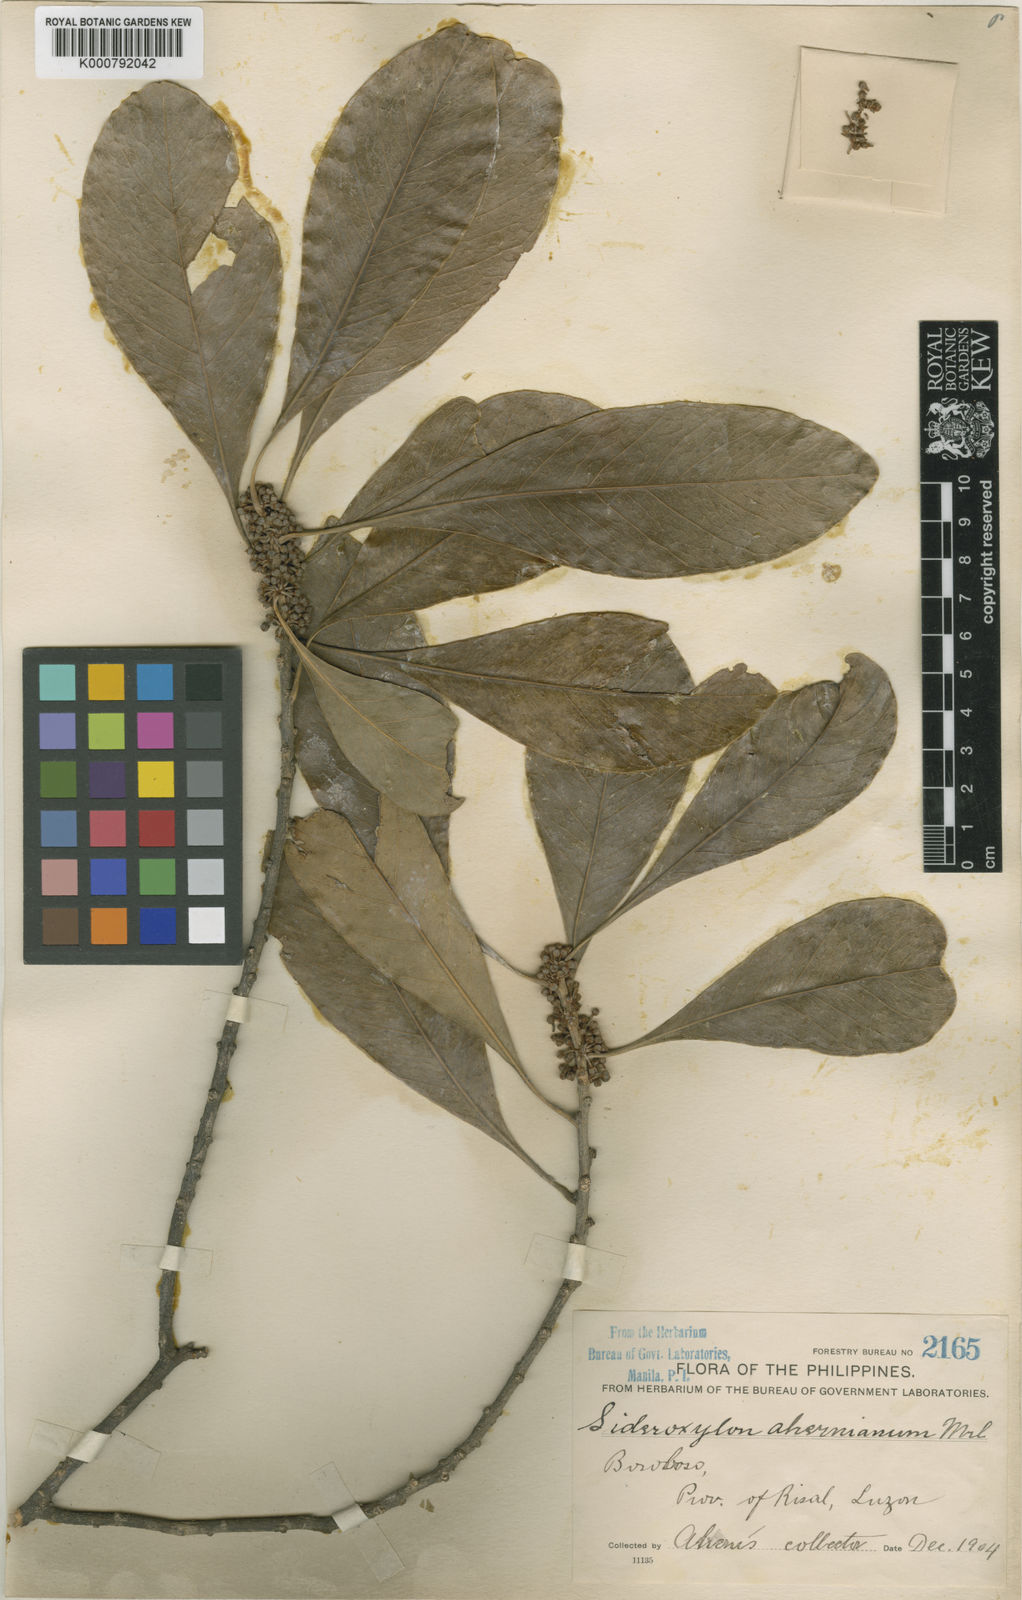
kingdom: Plantae
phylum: Tracheophyta
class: Magnoliopsida
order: Ericales
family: Sapotaceae
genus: Planchonella
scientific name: Planchonella obovata
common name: Black-ash
